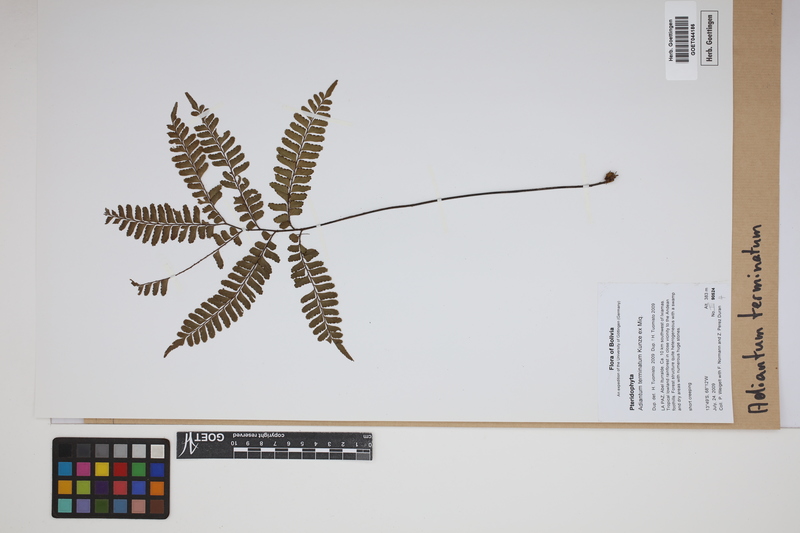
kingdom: Plantae
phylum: Tracheophyta
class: Polypodiopsida
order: Polypodiales
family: Pteridaceae
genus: Adiantum
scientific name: Adiantum terminatum
